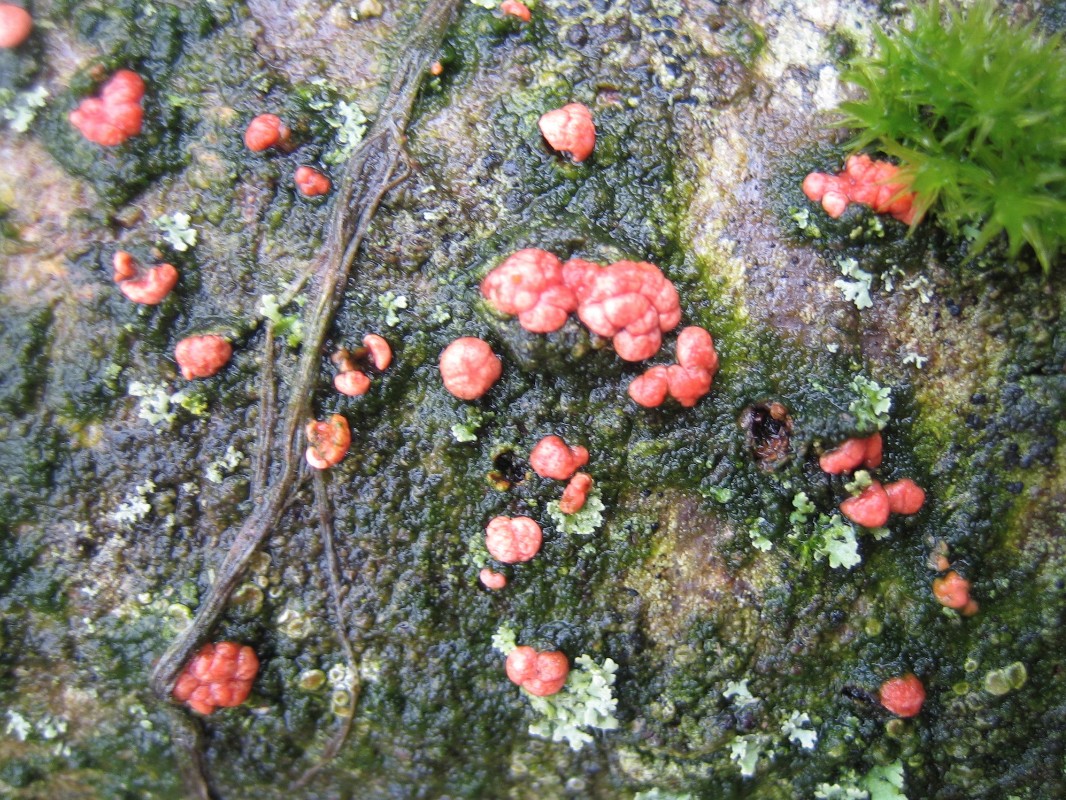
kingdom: Fungi
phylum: Ascomycota
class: Sordariomycetes
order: Hypocreales
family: Nectriaceae
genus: Nectria
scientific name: Nectria cinnabarina
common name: almindelig cinnobersvamp
